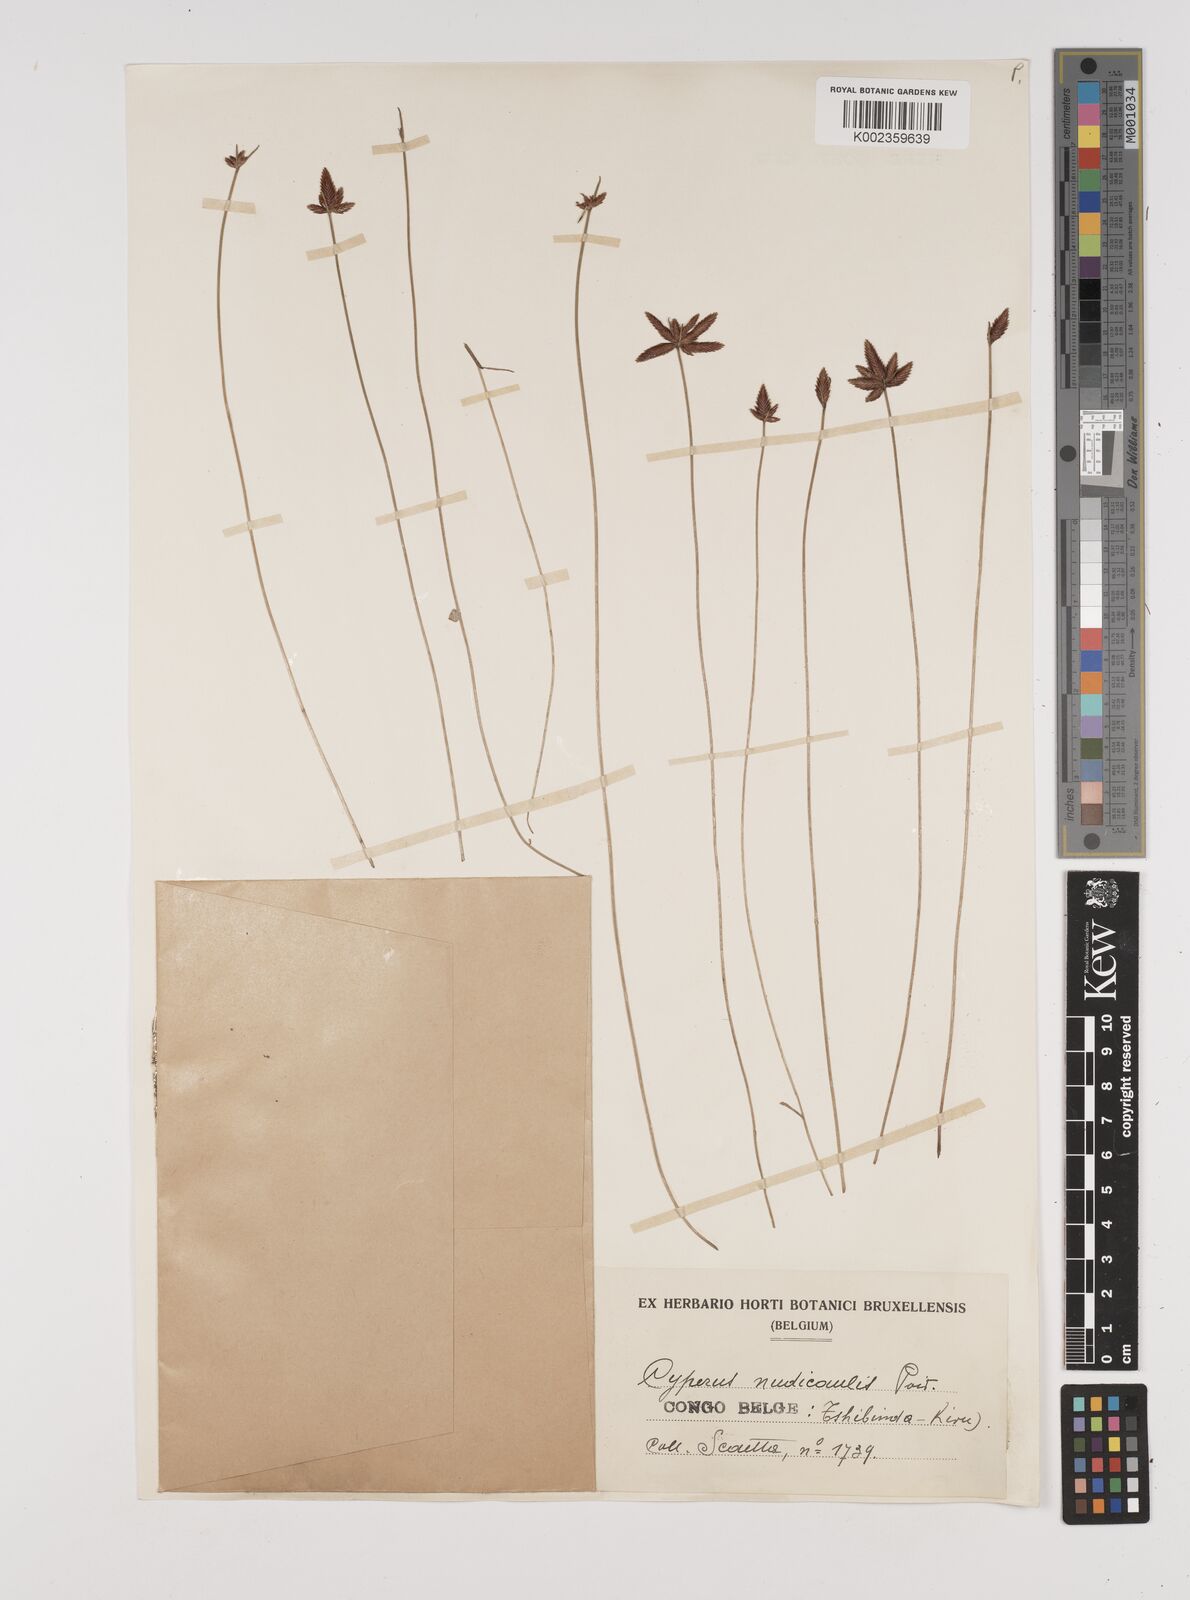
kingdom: Plantae
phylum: Tracheophyta
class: Liliopsida
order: Poales
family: Cyperaceae
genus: Cyperus
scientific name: Cyperus pectinatus
